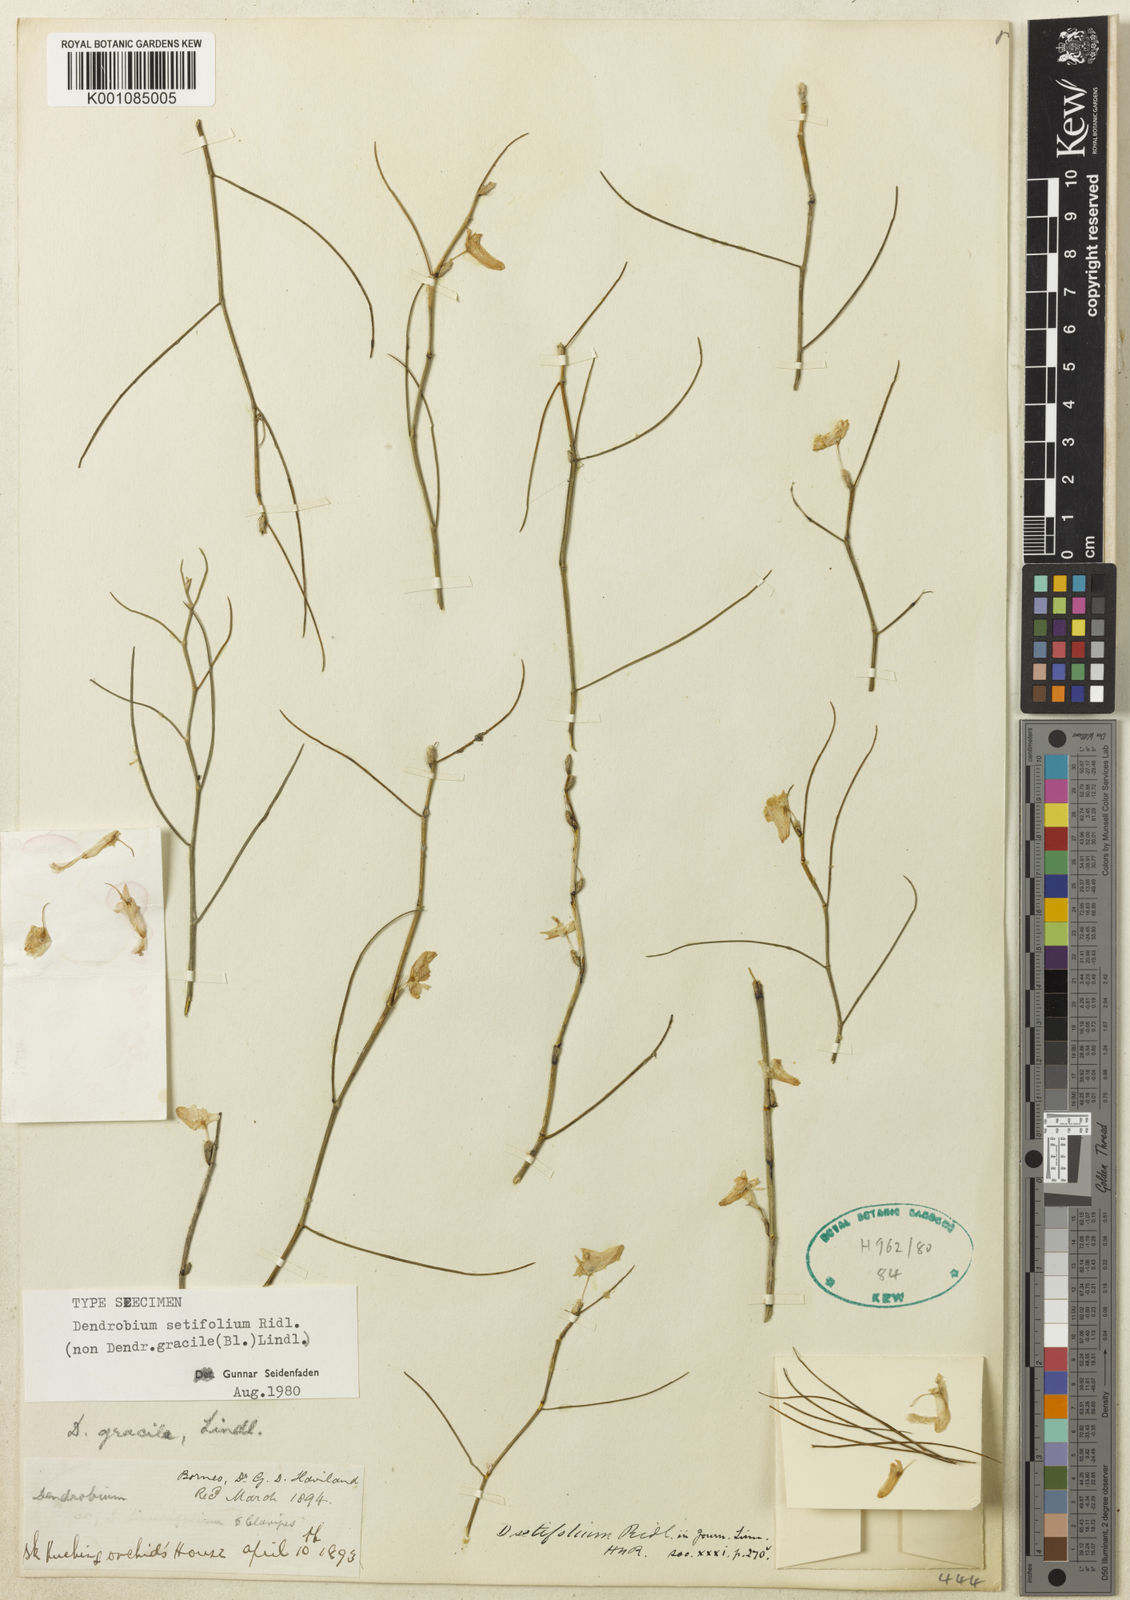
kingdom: Plantae
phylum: Tracheophyta
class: Liliopsida
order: Asparagales
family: Orchidaceae
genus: Dendrobium
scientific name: Dendrobium setifolium
